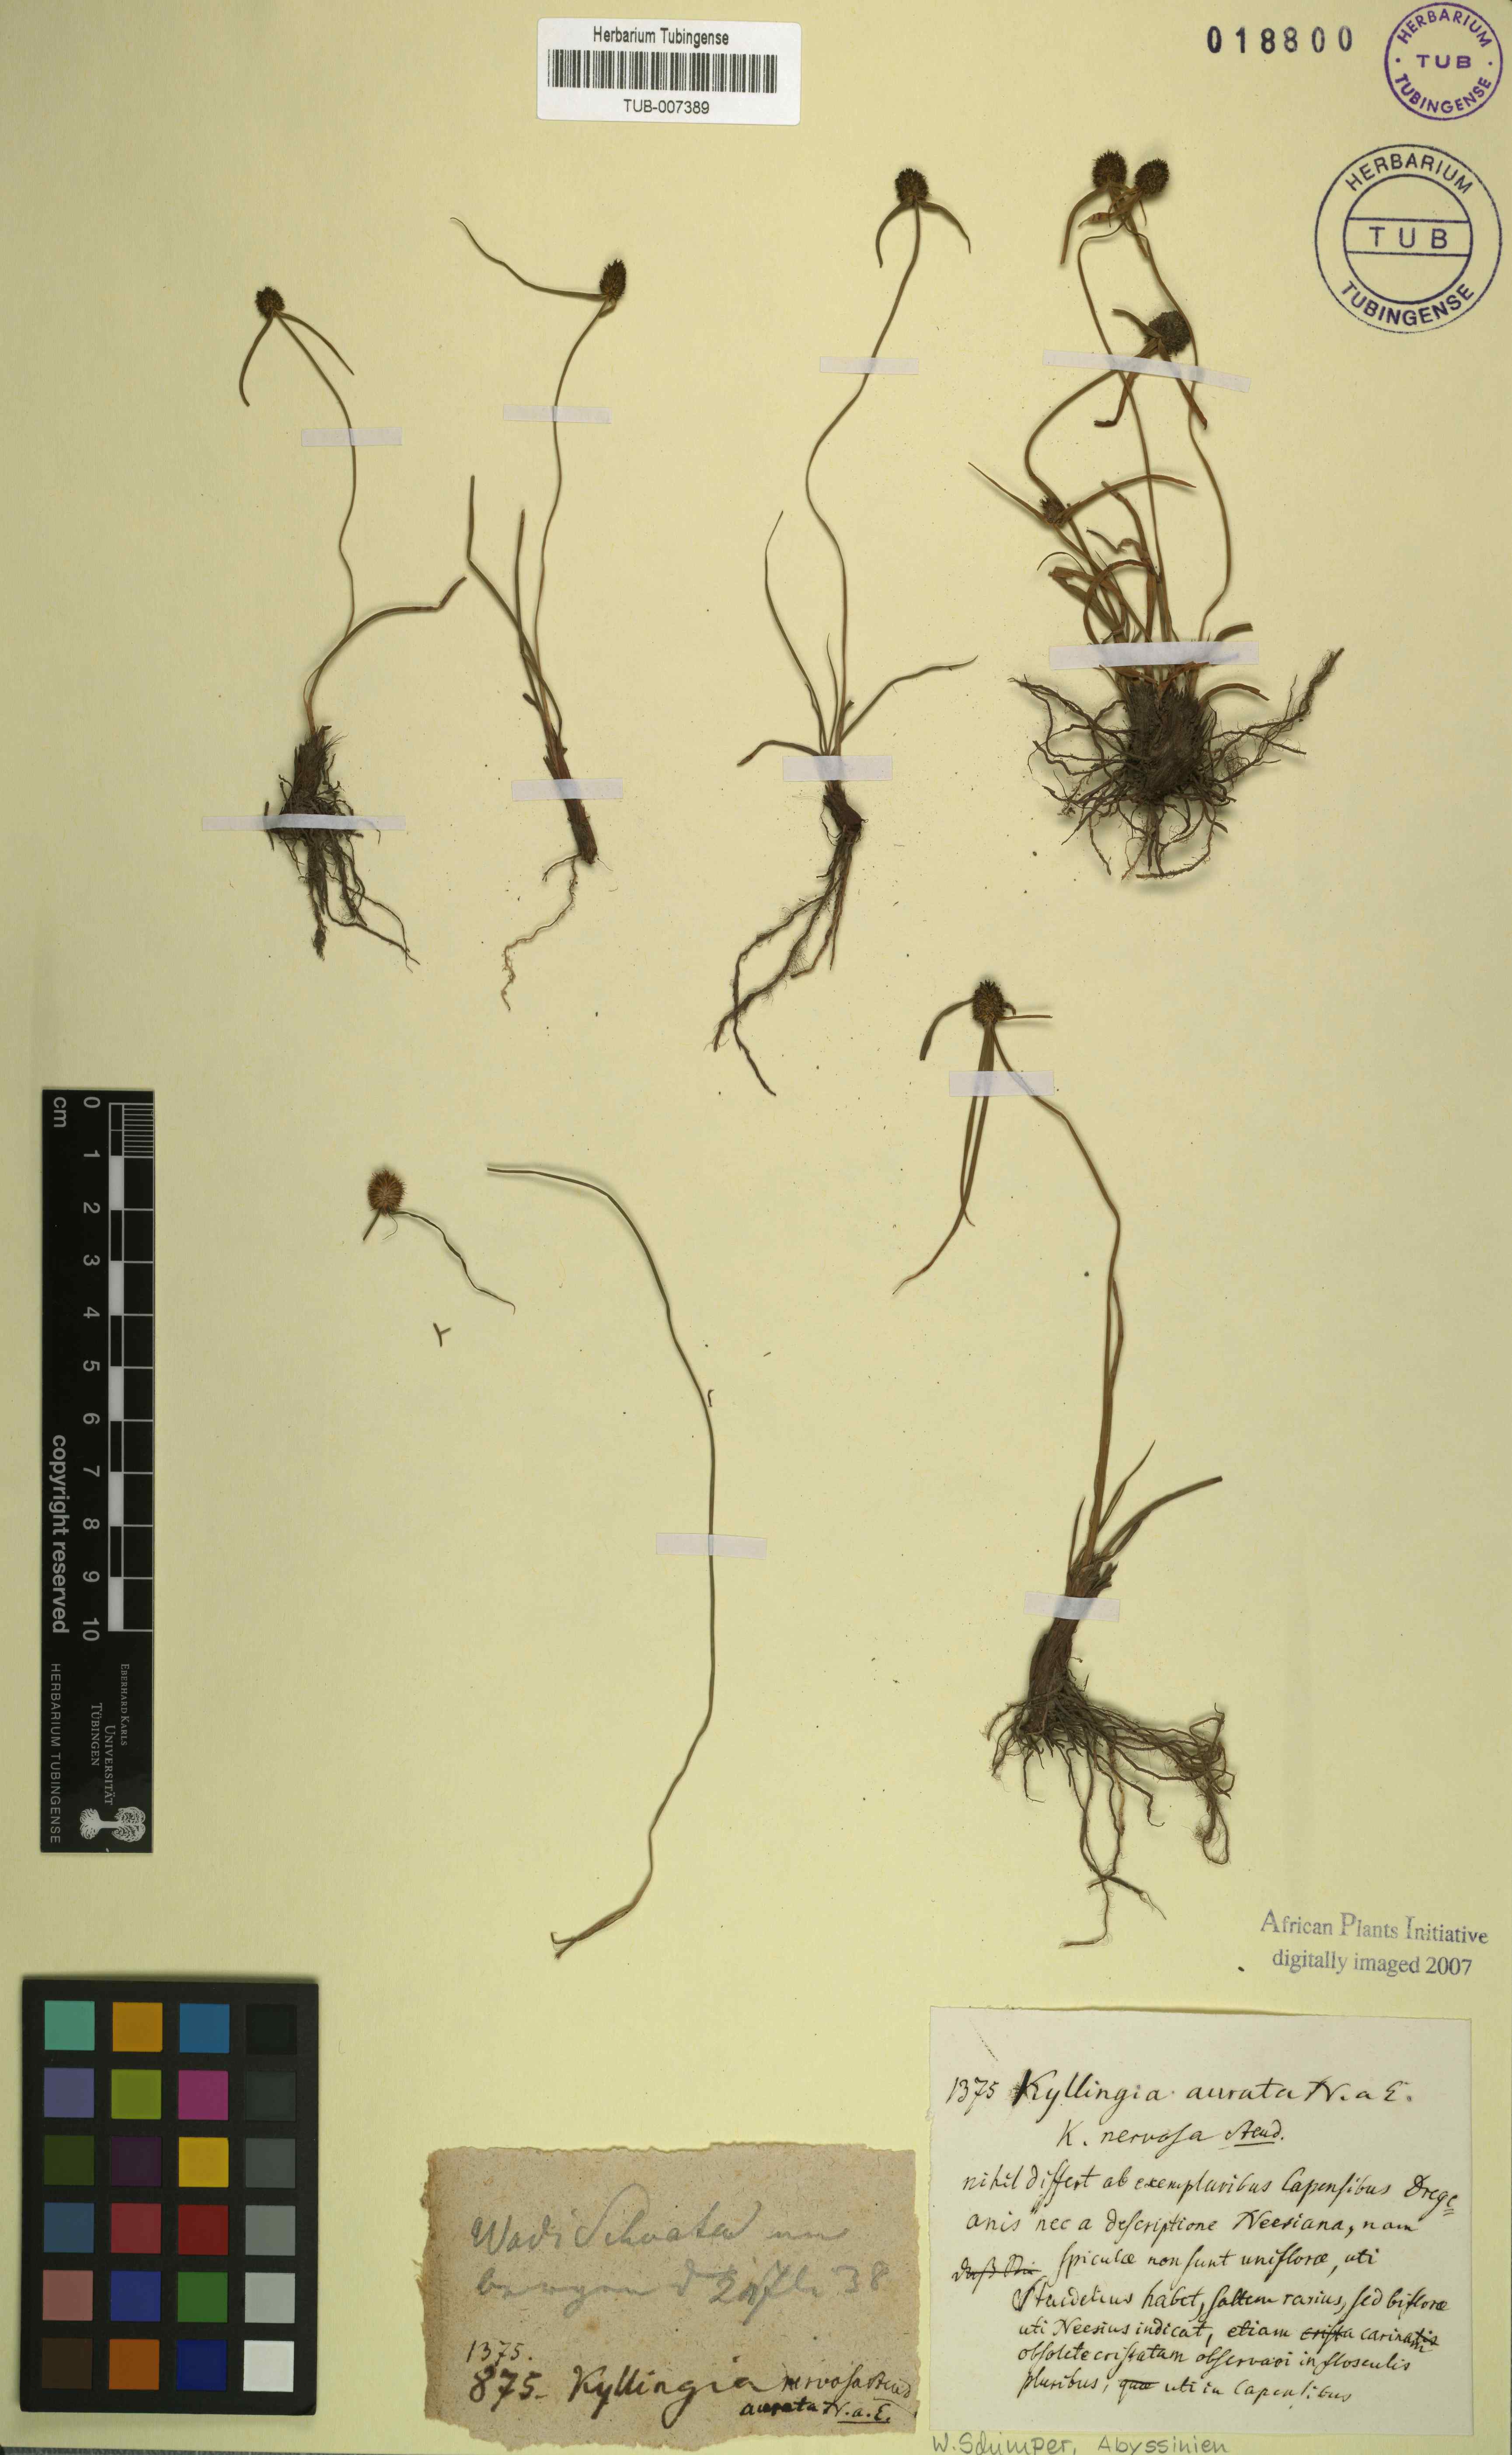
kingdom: Plantae
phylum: Tracheophyta
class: Liliopsida
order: Poales
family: Cyperaceae
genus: Cyperus
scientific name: Cyperus auratus
